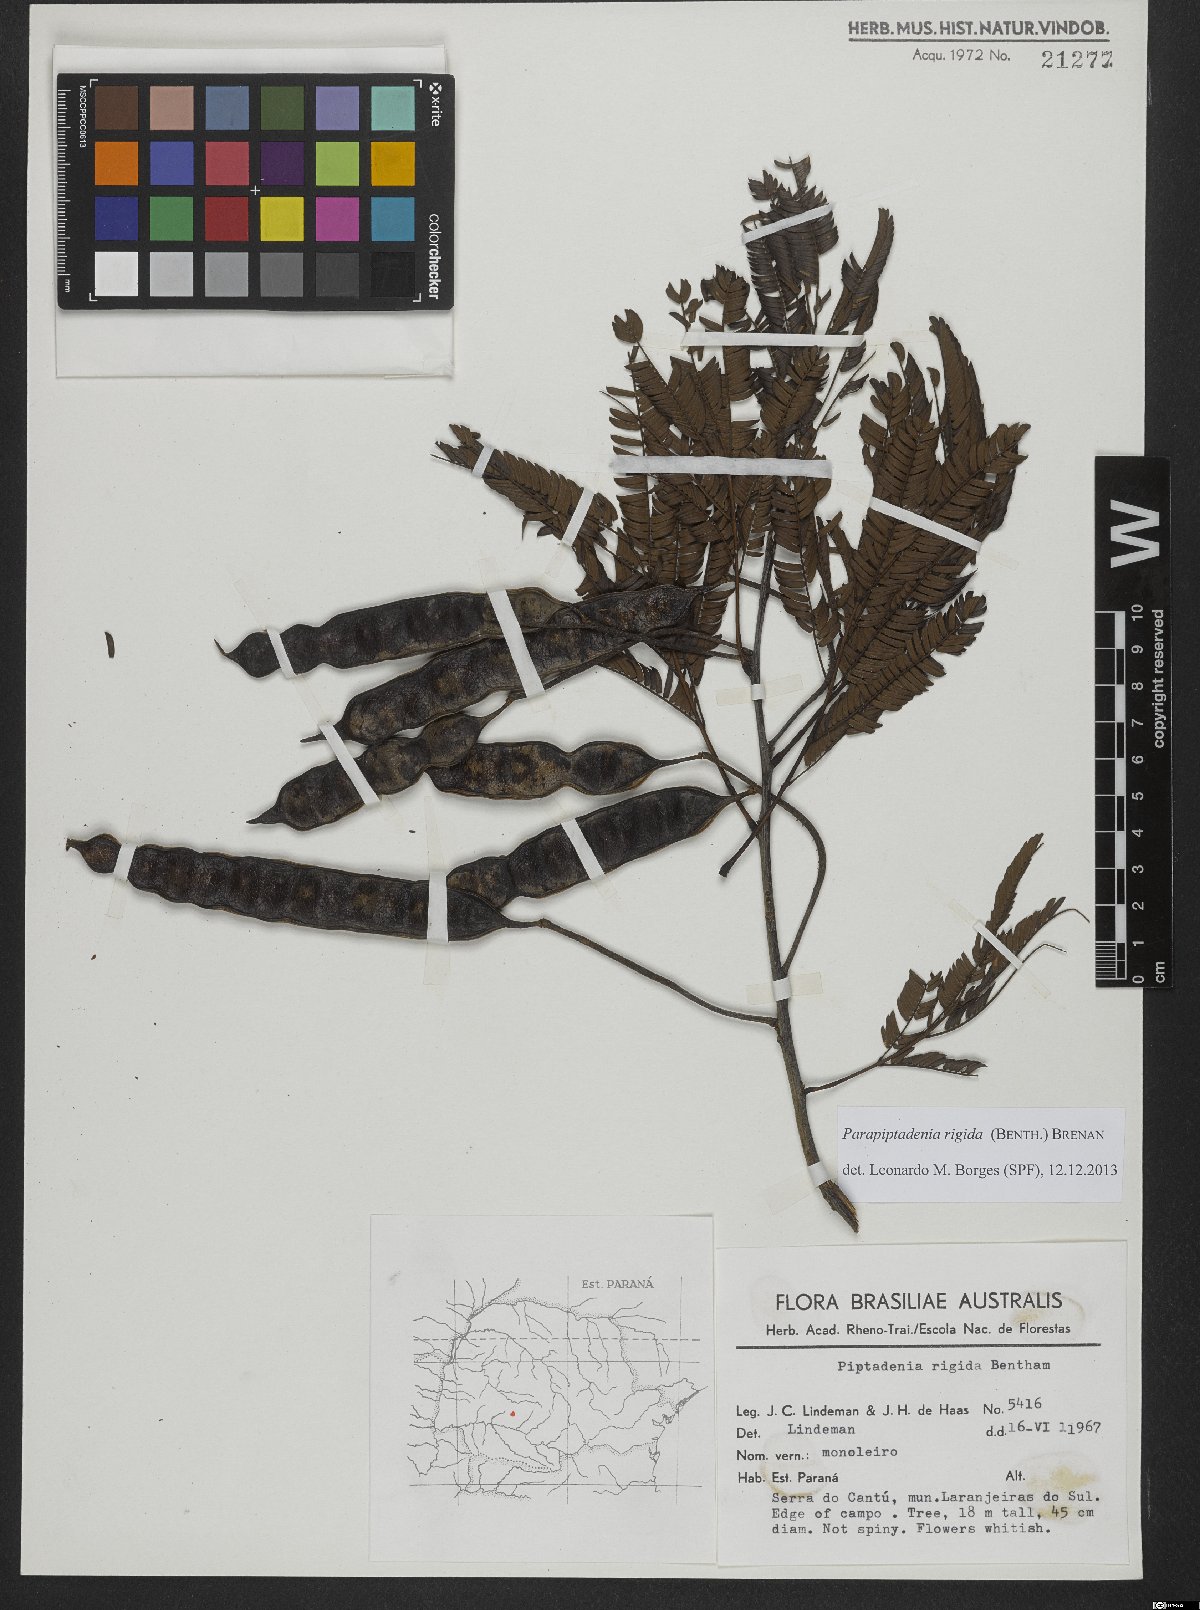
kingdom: Plantae
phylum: Tracheophyta
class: Magnoliopsida
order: Fabales
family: Fabaceae
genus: Parapiptadenia
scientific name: Parapiptadenia rigida
